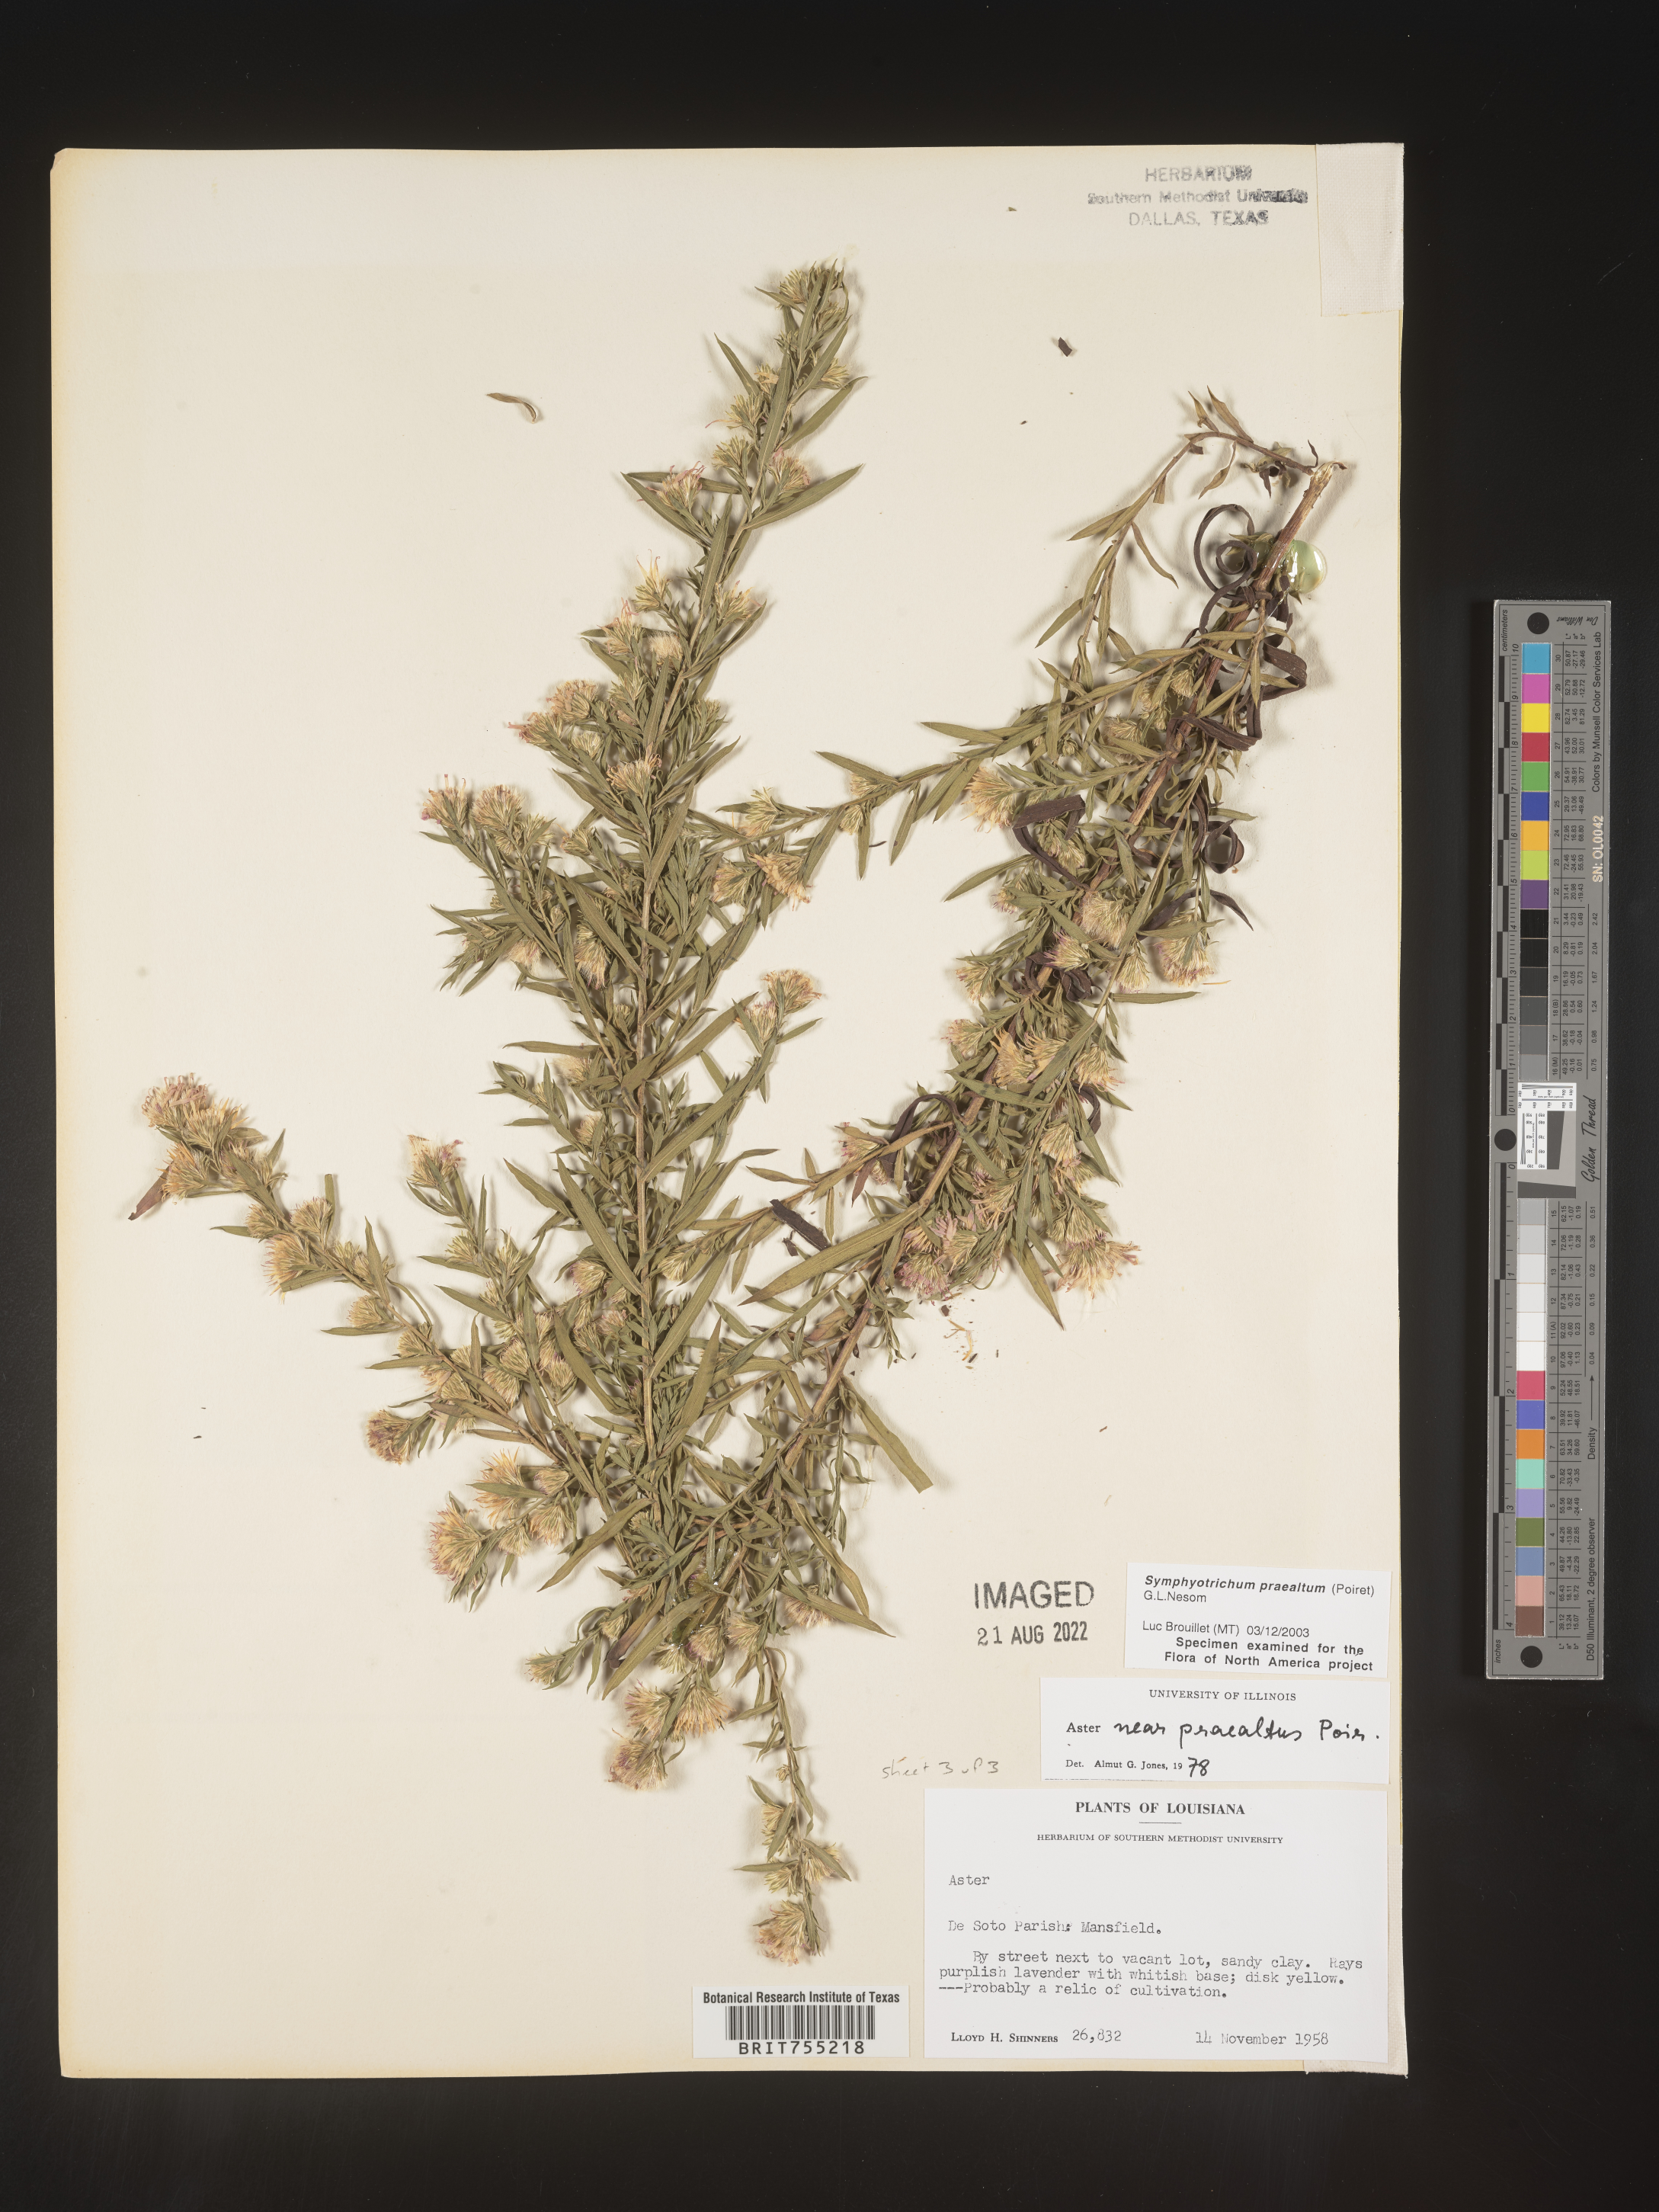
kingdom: Plantae
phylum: Tracheophyta
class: Magnoliopsida
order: Asterales
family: Asteraceae
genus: Symphyotrichum
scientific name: Symphyotrichum praealtum
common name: Willow aster
